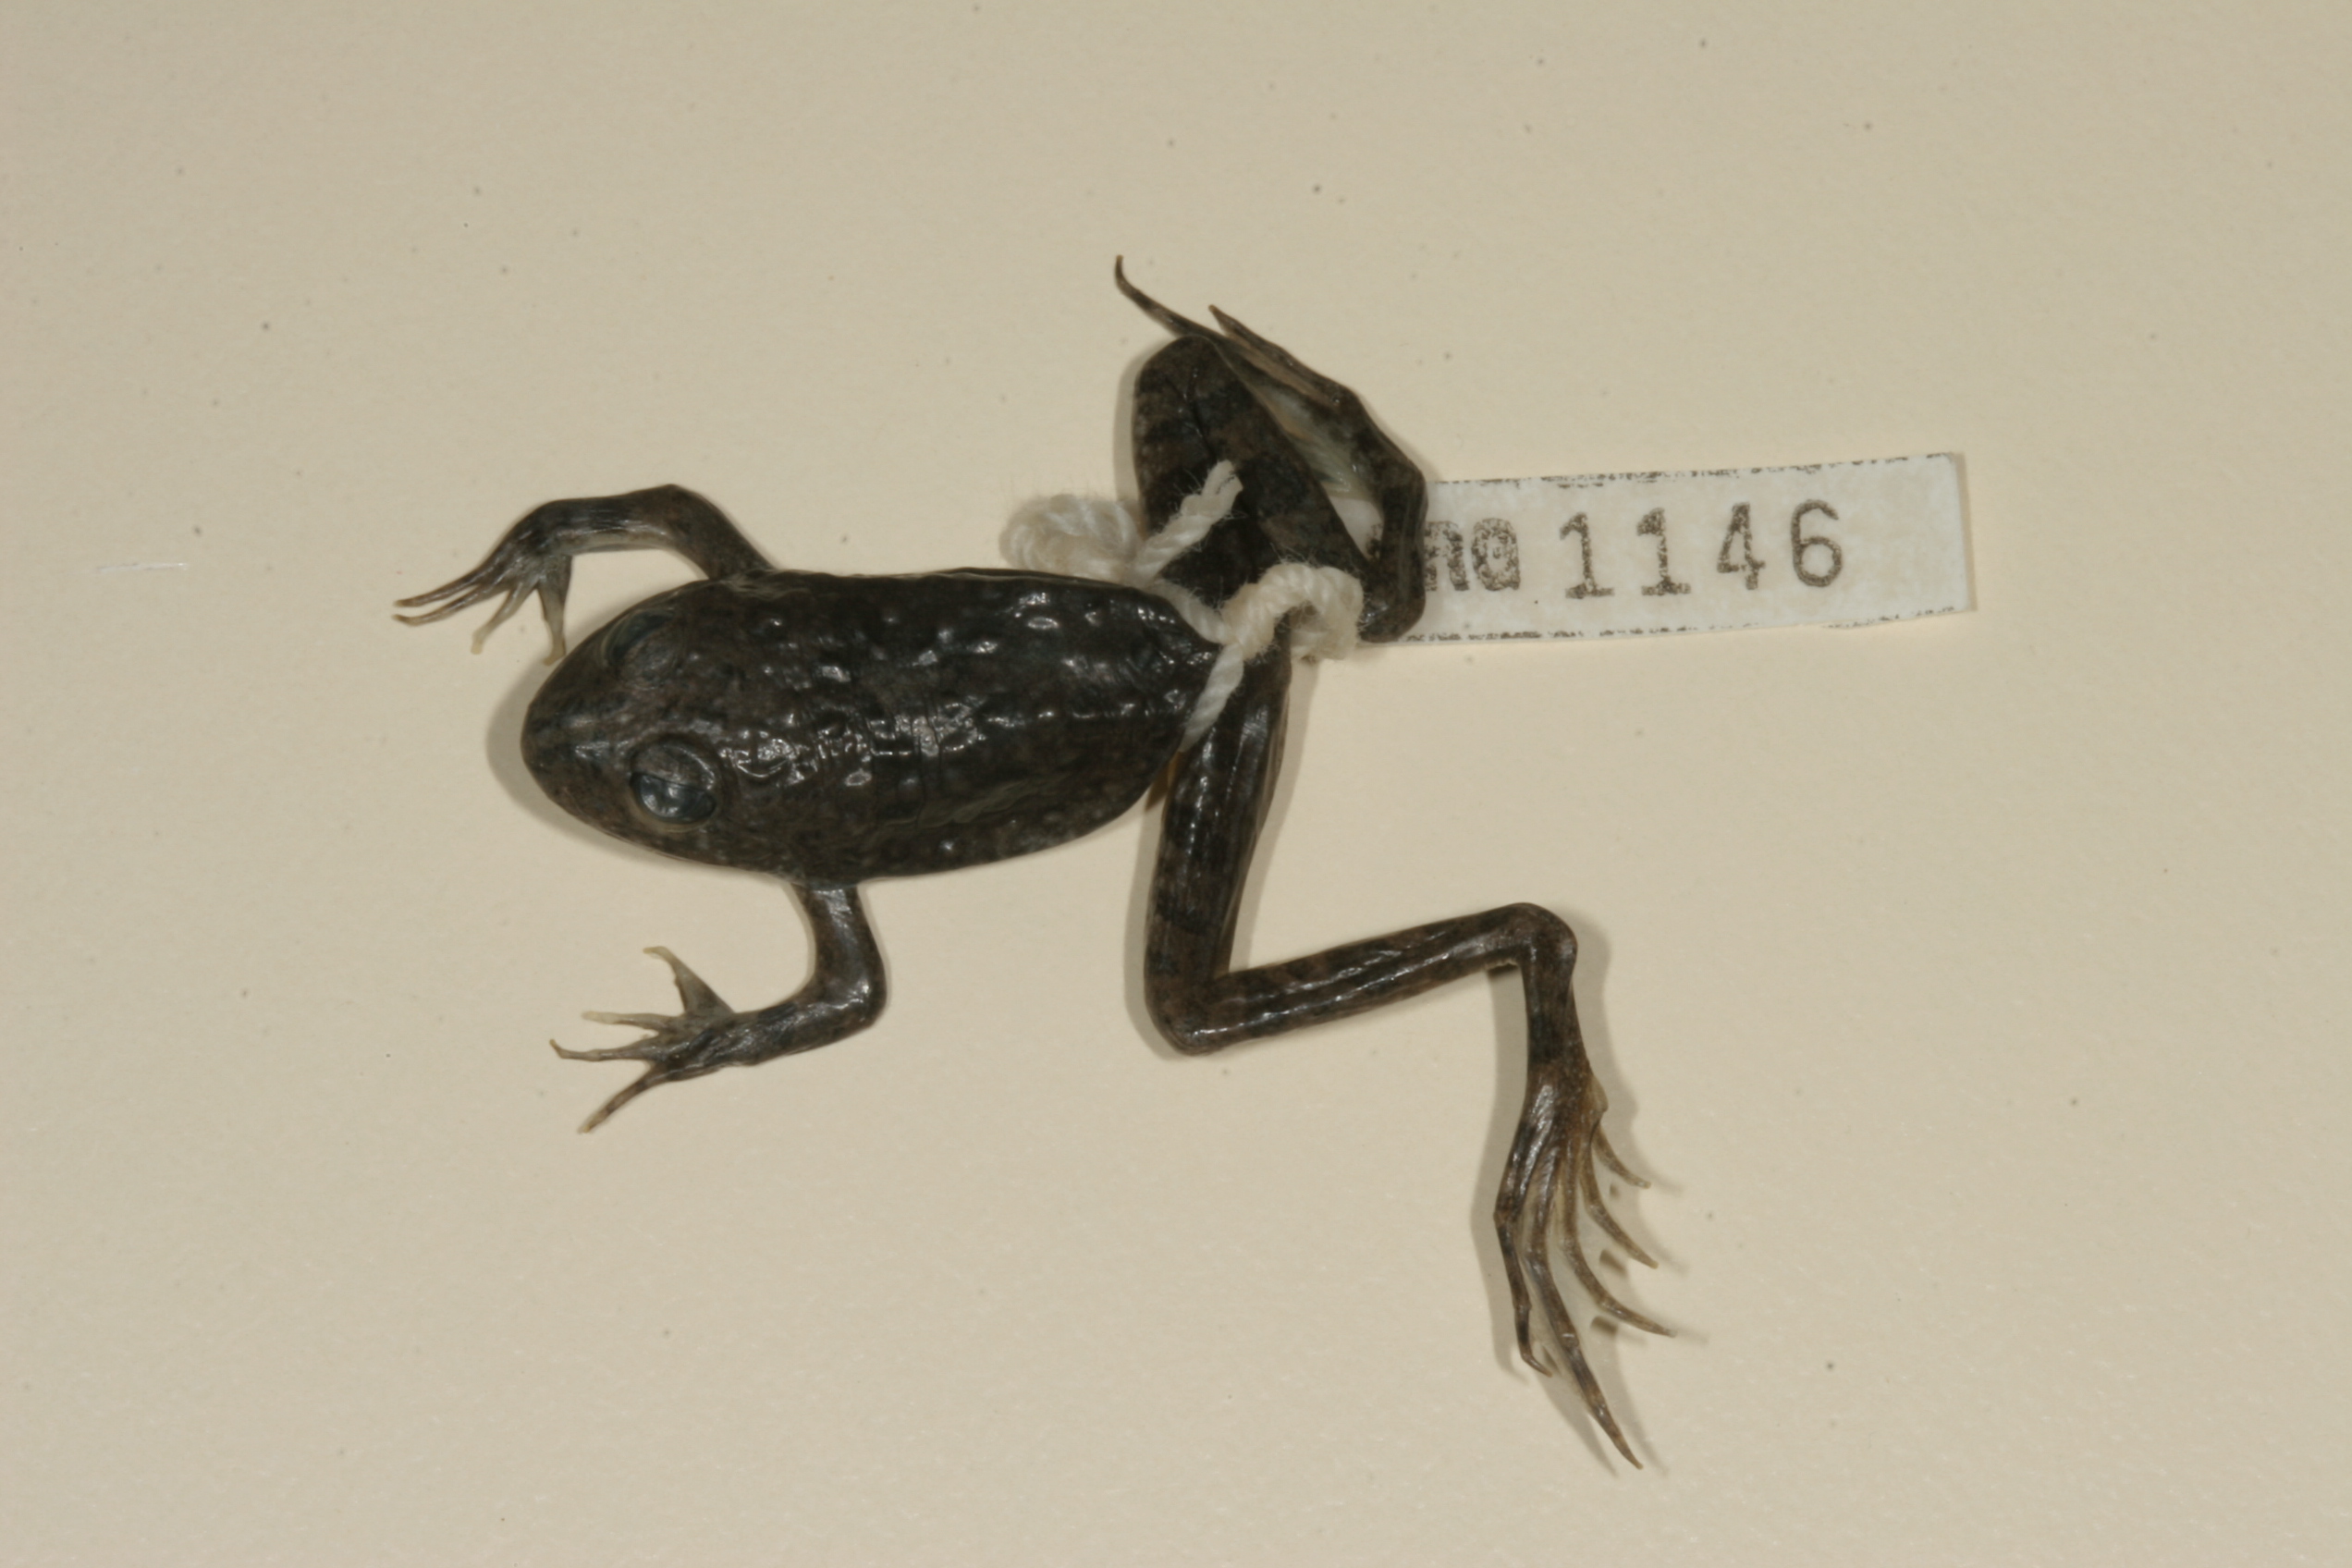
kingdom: Animalia
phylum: Chordata
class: Amphibia
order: Anura
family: Pyxicephalidae
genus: Amietia
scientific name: Amietia vertebralis
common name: Drakensberg stream frog
